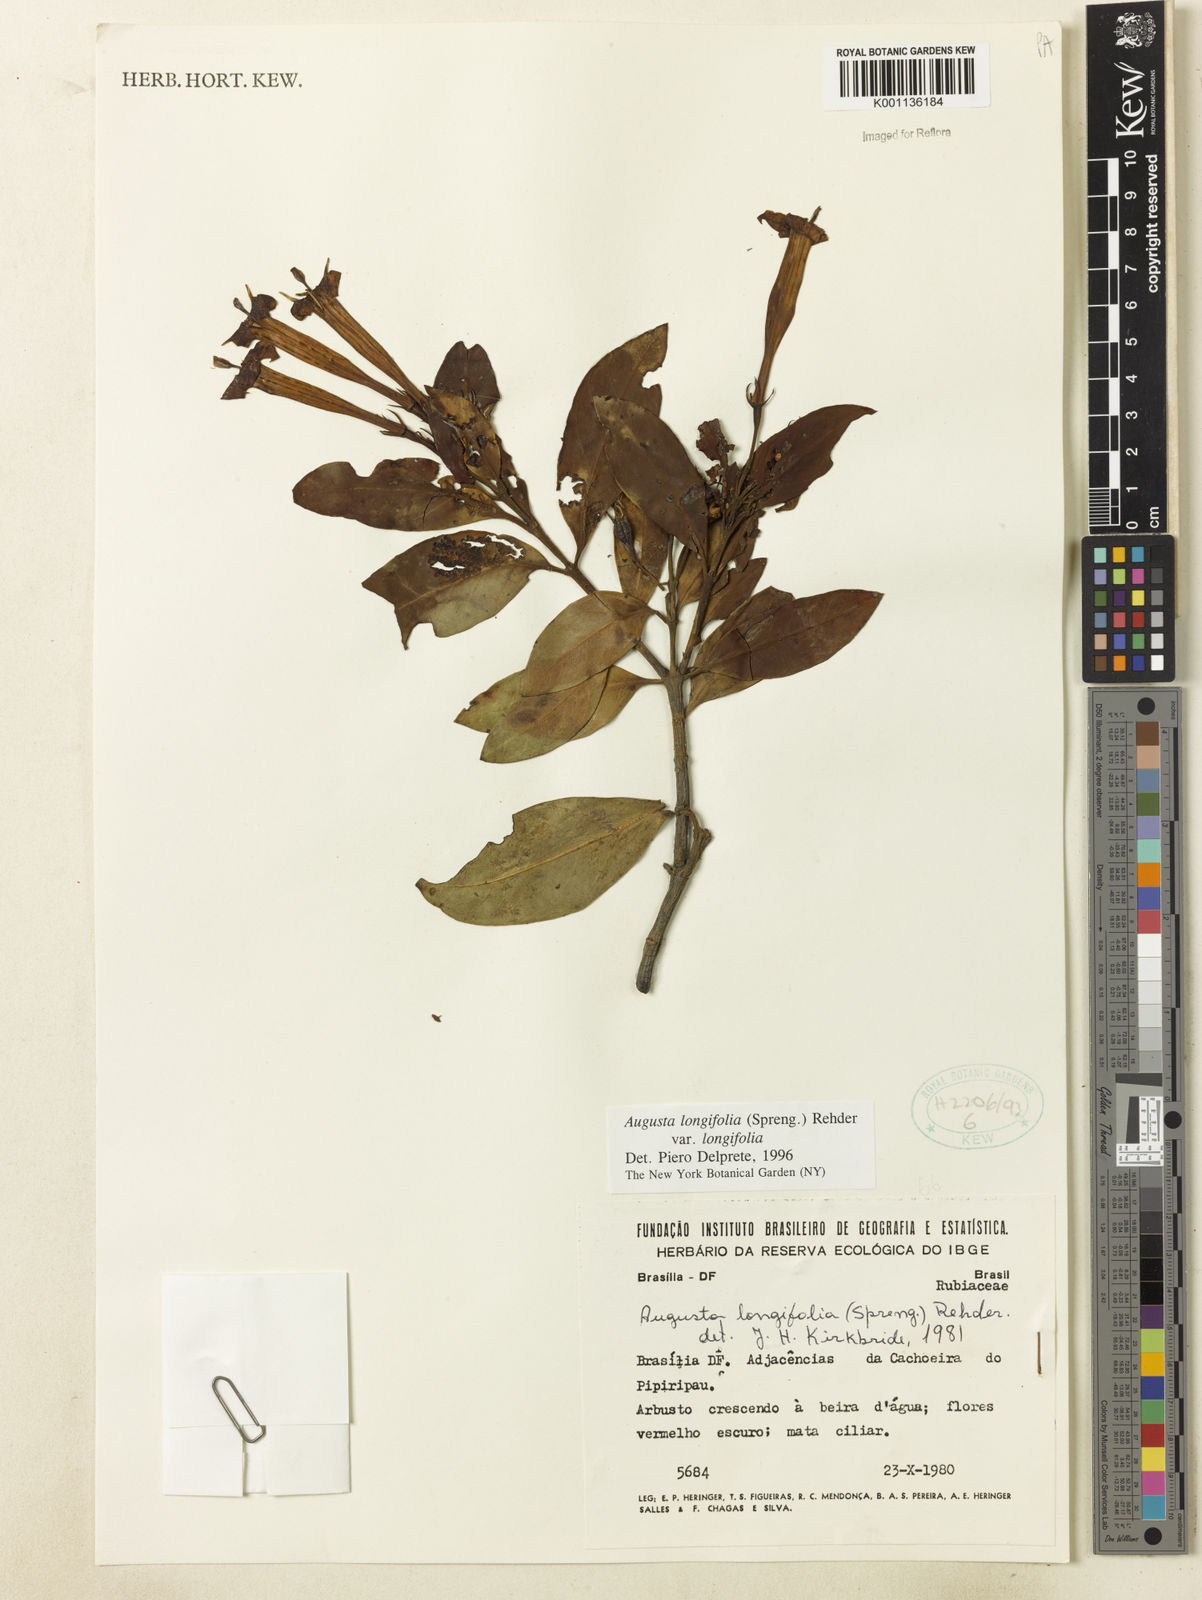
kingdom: Plantae
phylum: Tracheophyta
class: Magnoliopsida
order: Gentianales
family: Rubiaceae
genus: Augusta
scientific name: Augusta longifolia
